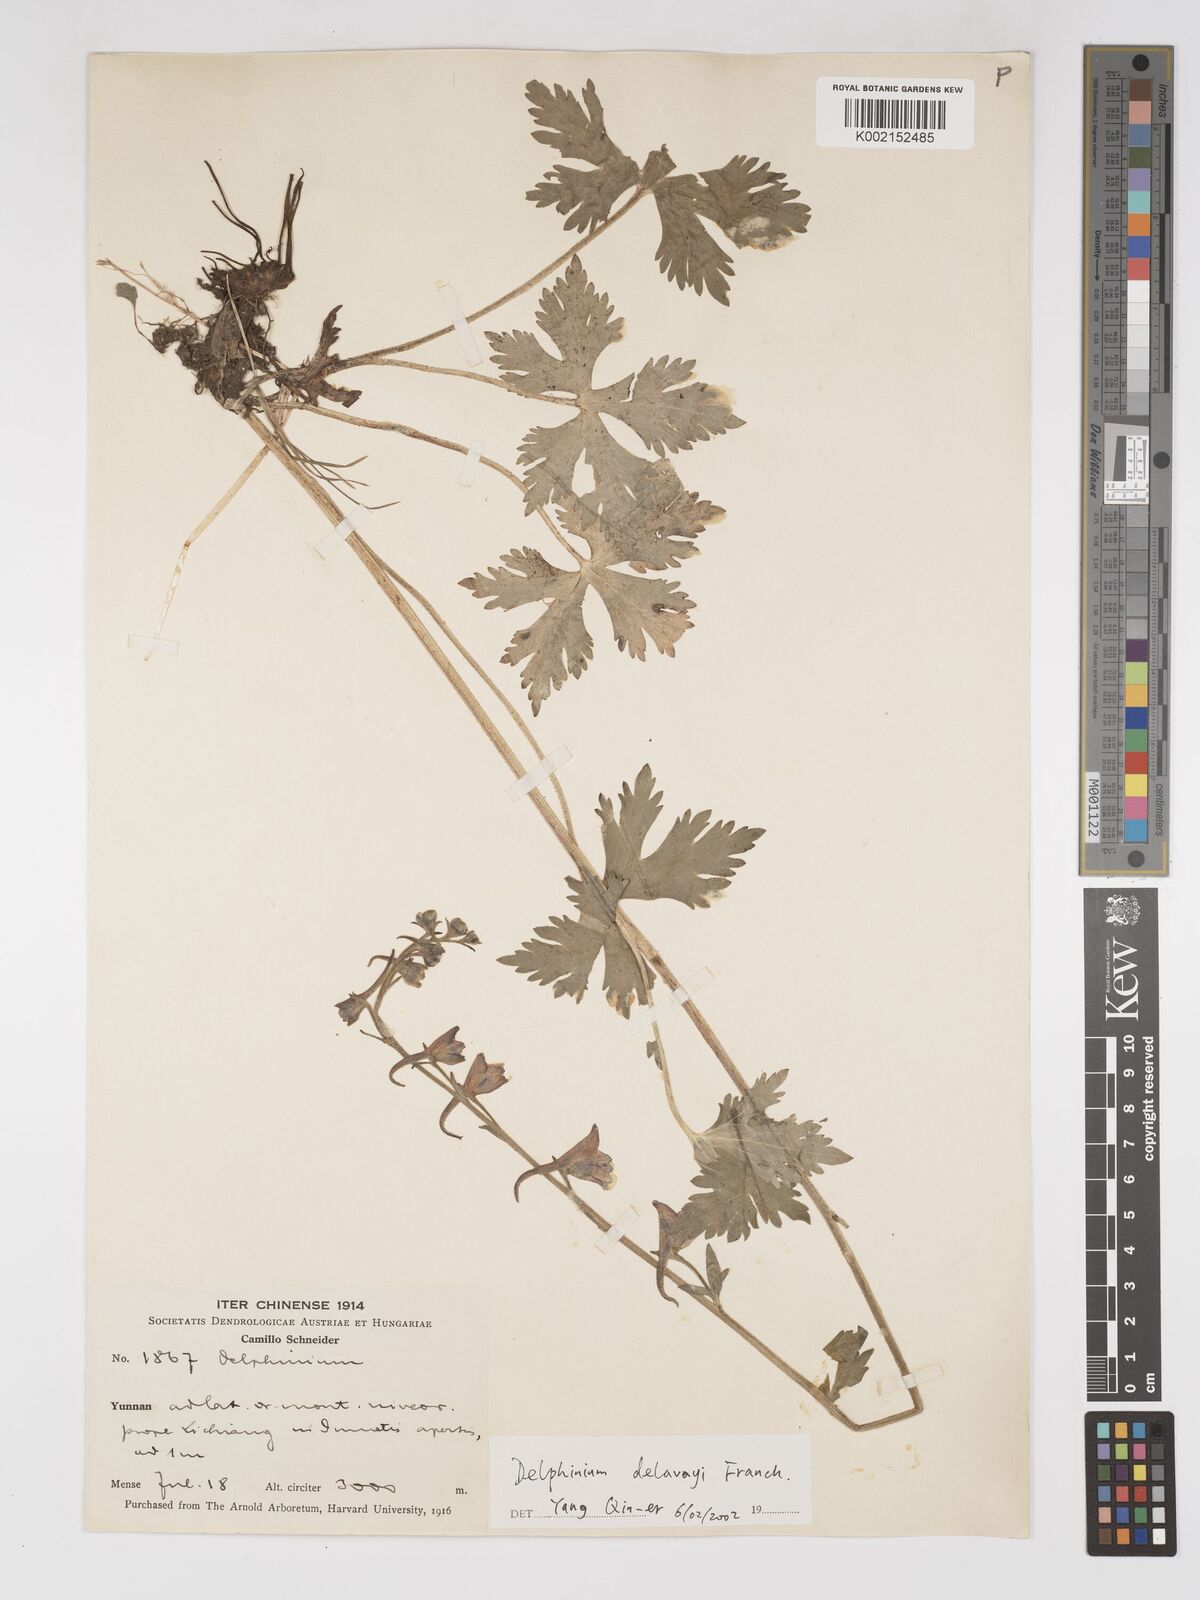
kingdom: Plantae
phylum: Tracheophyta
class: Magnoliopsida
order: Ranunculales
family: Ranunculaceae
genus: Delphinium
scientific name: Delphinium delavayi
